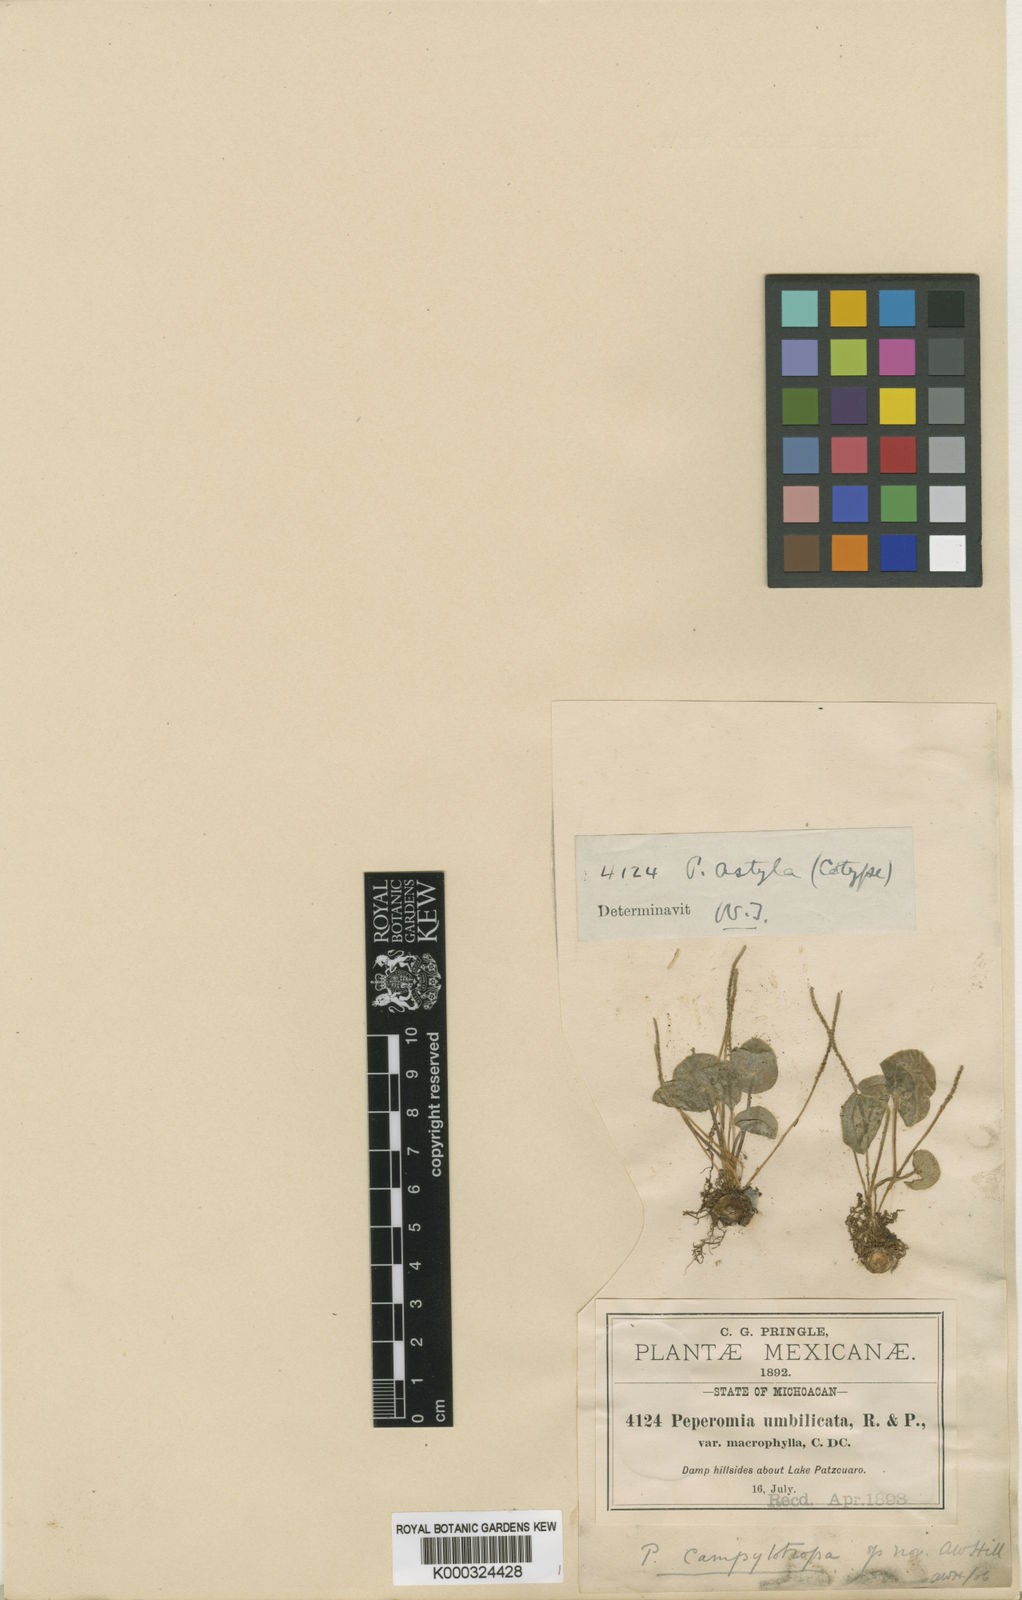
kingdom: Plantae
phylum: Tracheophyta
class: Magnoliopsida
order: Piperales
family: Piperaceae
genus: Peperomia
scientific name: Peperomia campylotropa
